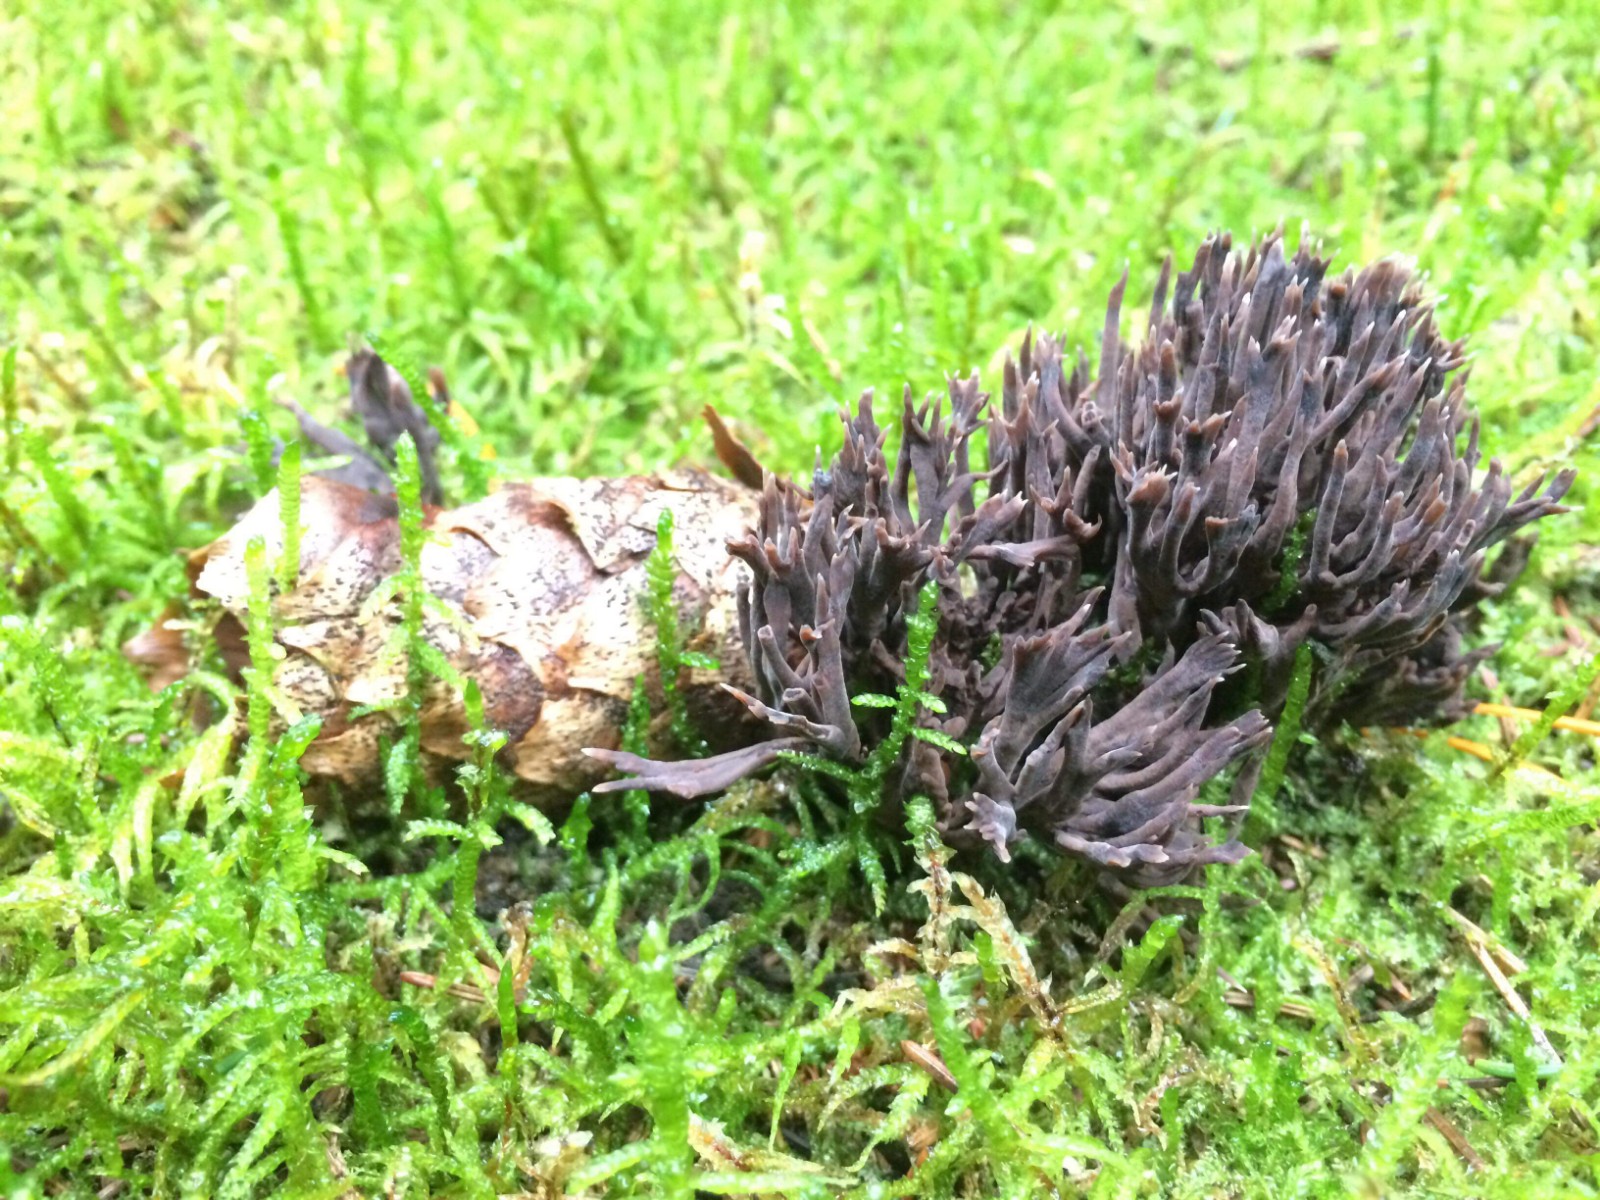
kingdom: Fungi
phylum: Basidiomycota
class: Agaricomycetes
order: Thelephorales
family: Thelephoraceae
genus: Thelephora
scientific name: Thelephora palmata
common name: grenet frynsesvamp
